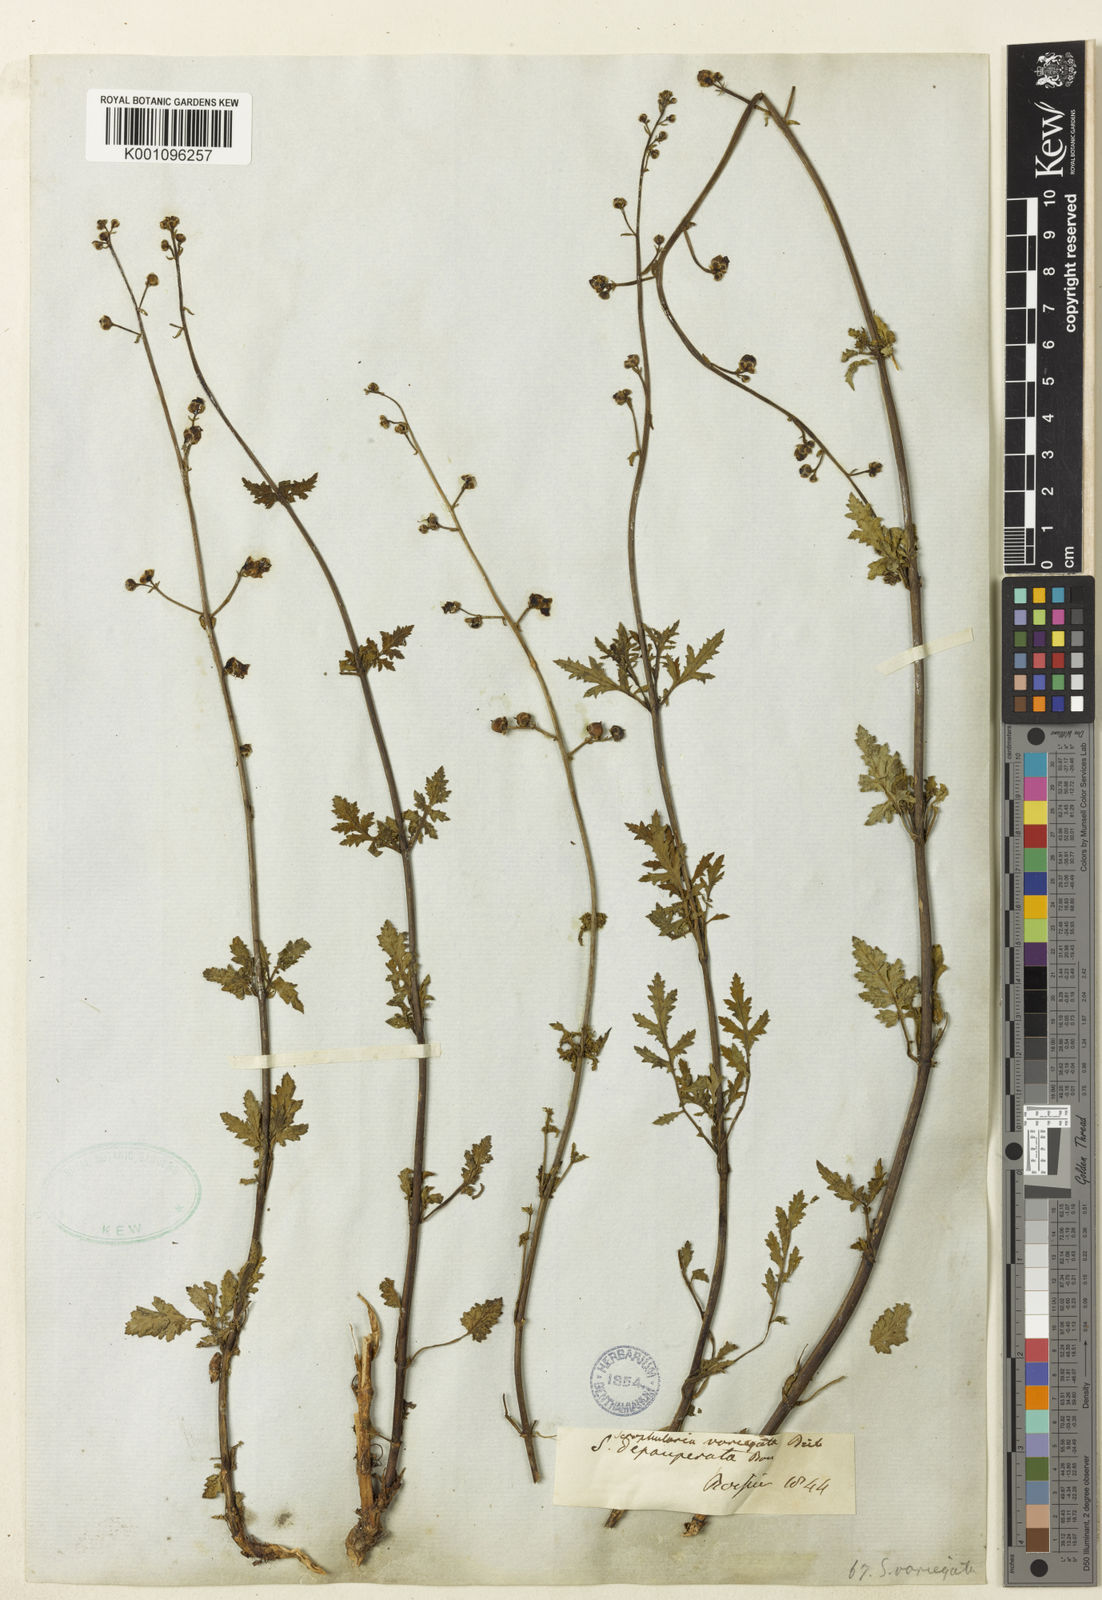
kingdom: Plantae
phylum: Tracheophyta
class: Magnoliopsida
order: Lamiales
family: Scrophulariaceae
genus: Scrophularia
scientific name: Scrophularia depauperata
